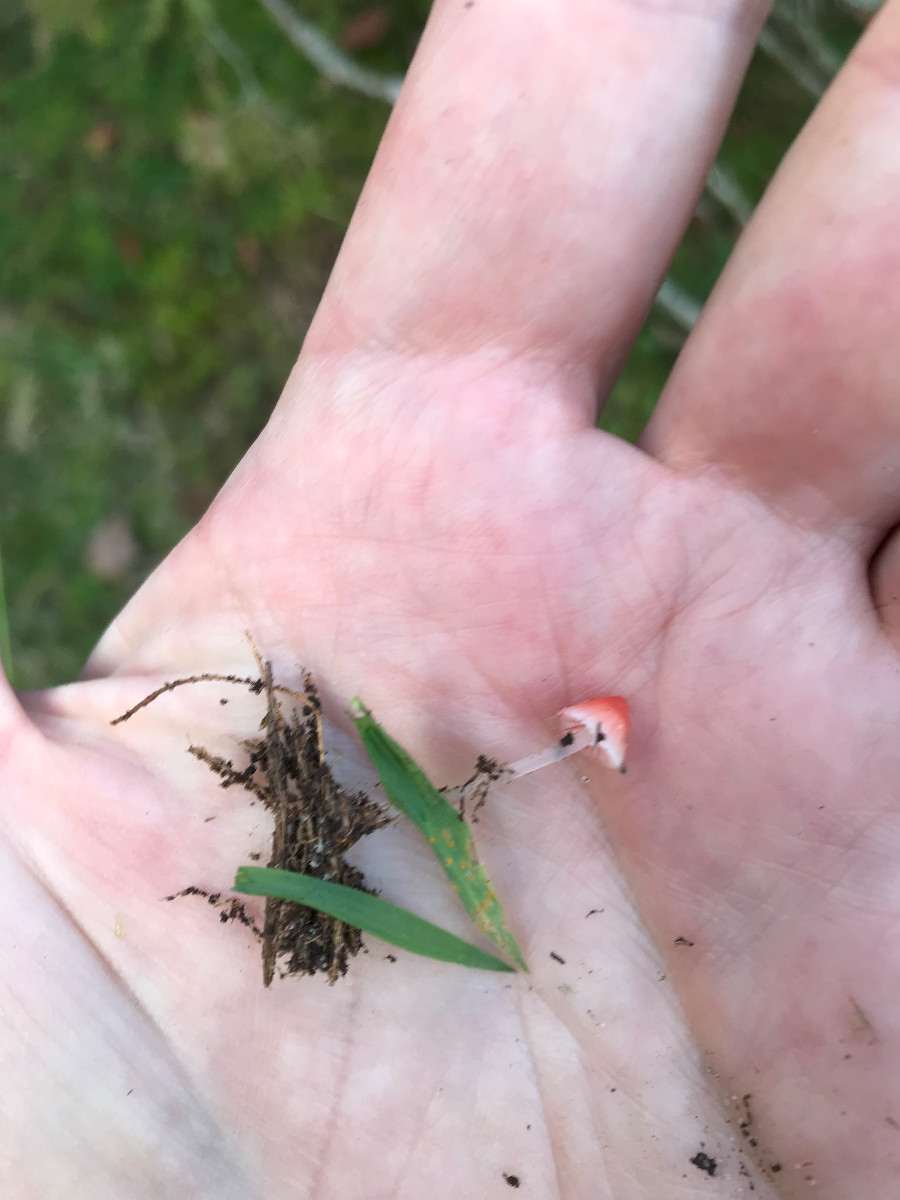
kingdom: Fungi
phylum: Basidiomycota
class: Agaricomycetes
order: Agaricales
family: Mycenaceae
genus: Atheniella
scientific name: Atheniella adonis
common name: rønnerød huesvamp
